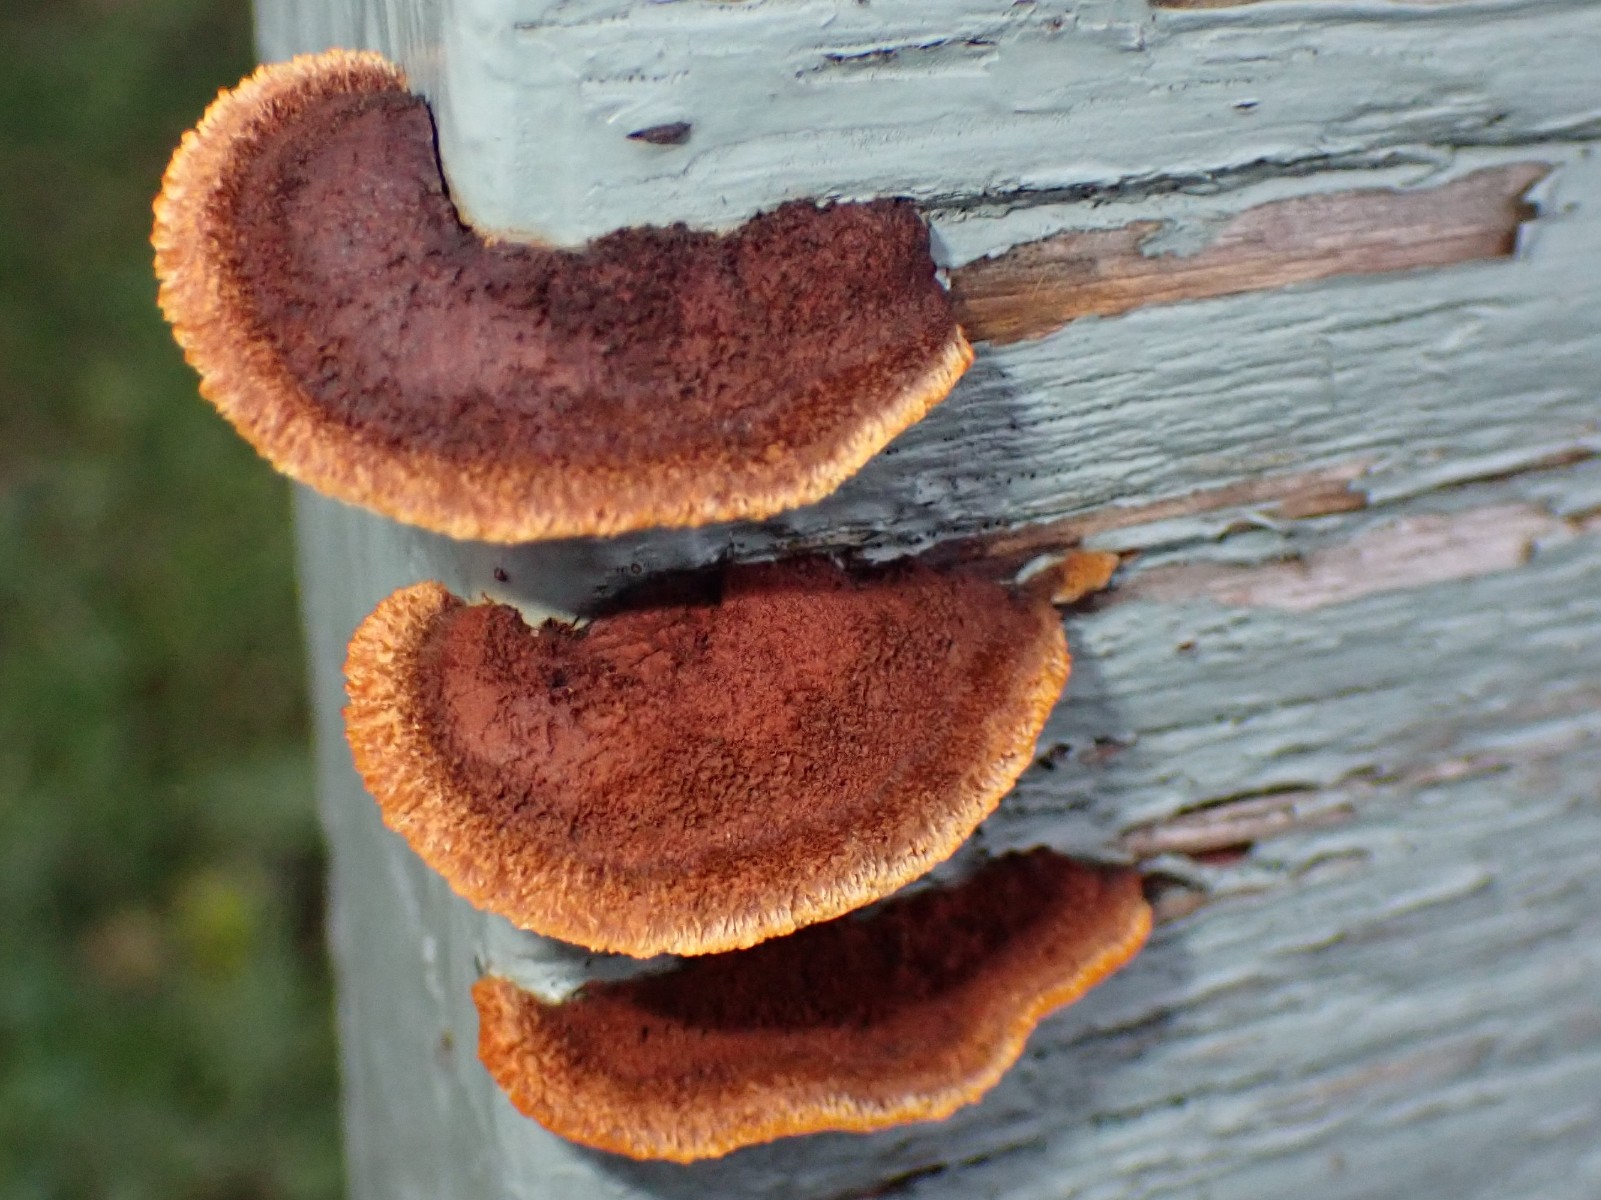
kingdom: Fungi
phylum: Basidiomycota
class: Agaricomycetes
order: Gloeophyllales
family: Gloeophyllaceae
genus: Gloeophyllum
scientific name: Gloeophyllum sepiarium
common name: fyrre-korkhat
